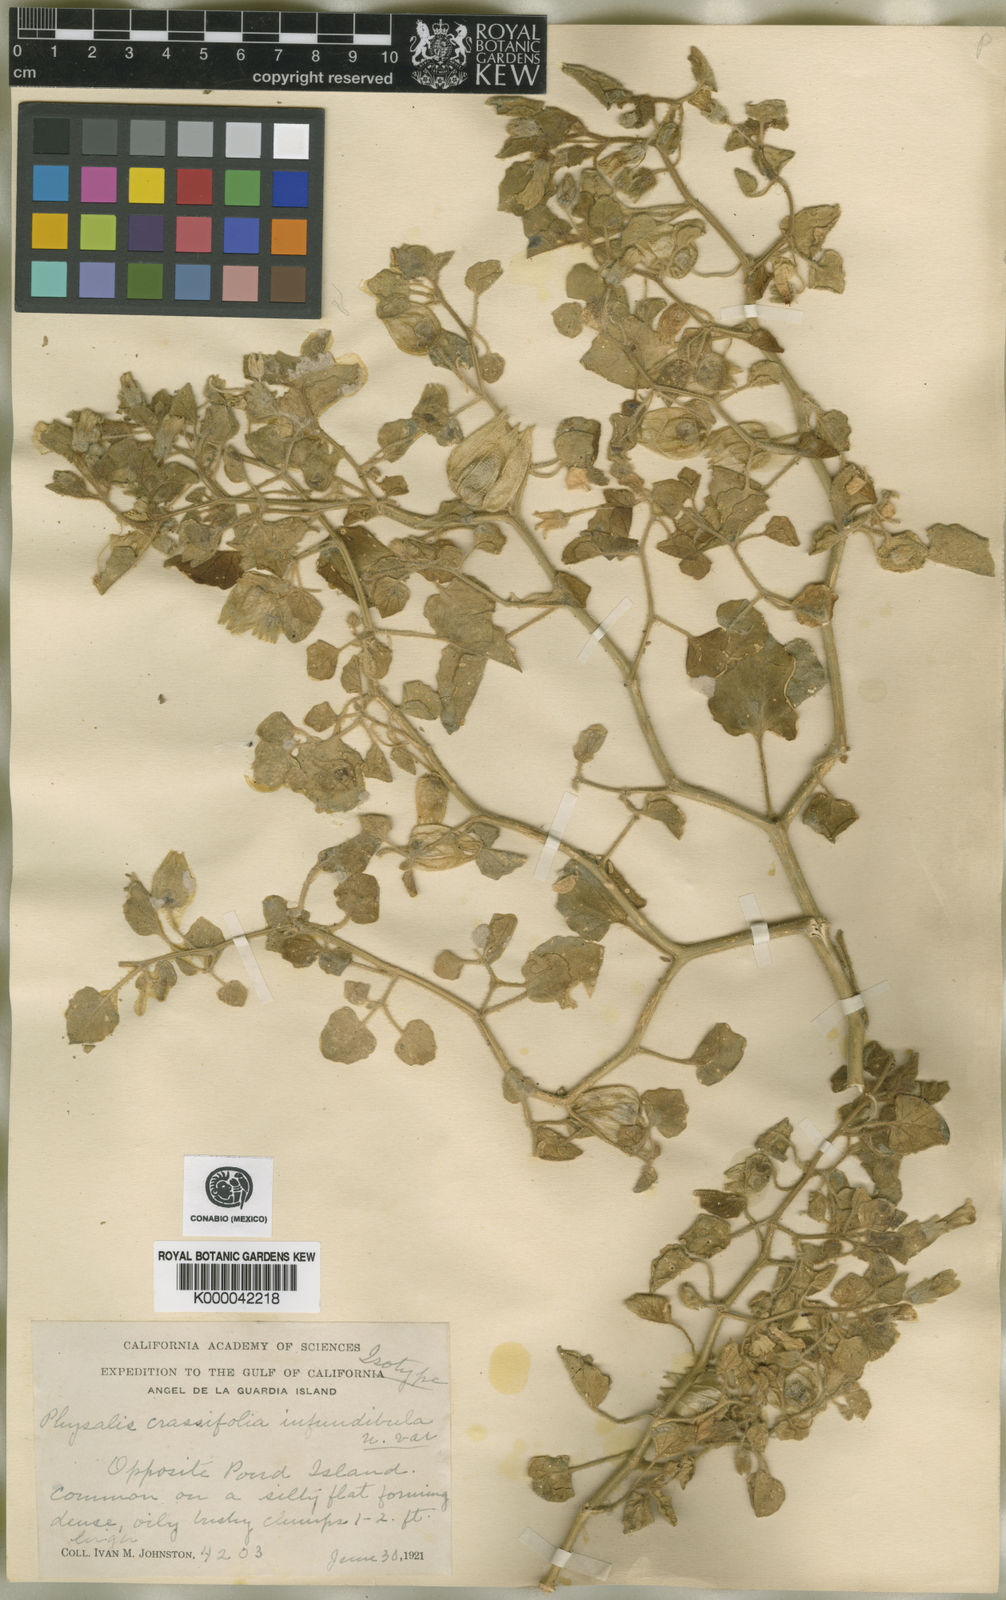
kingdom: Plantae
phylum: Tracheophyta
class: Magnoliopsida
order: Solanales
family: Solanaceae
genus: Physalis
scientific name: Physalis crassifolia
